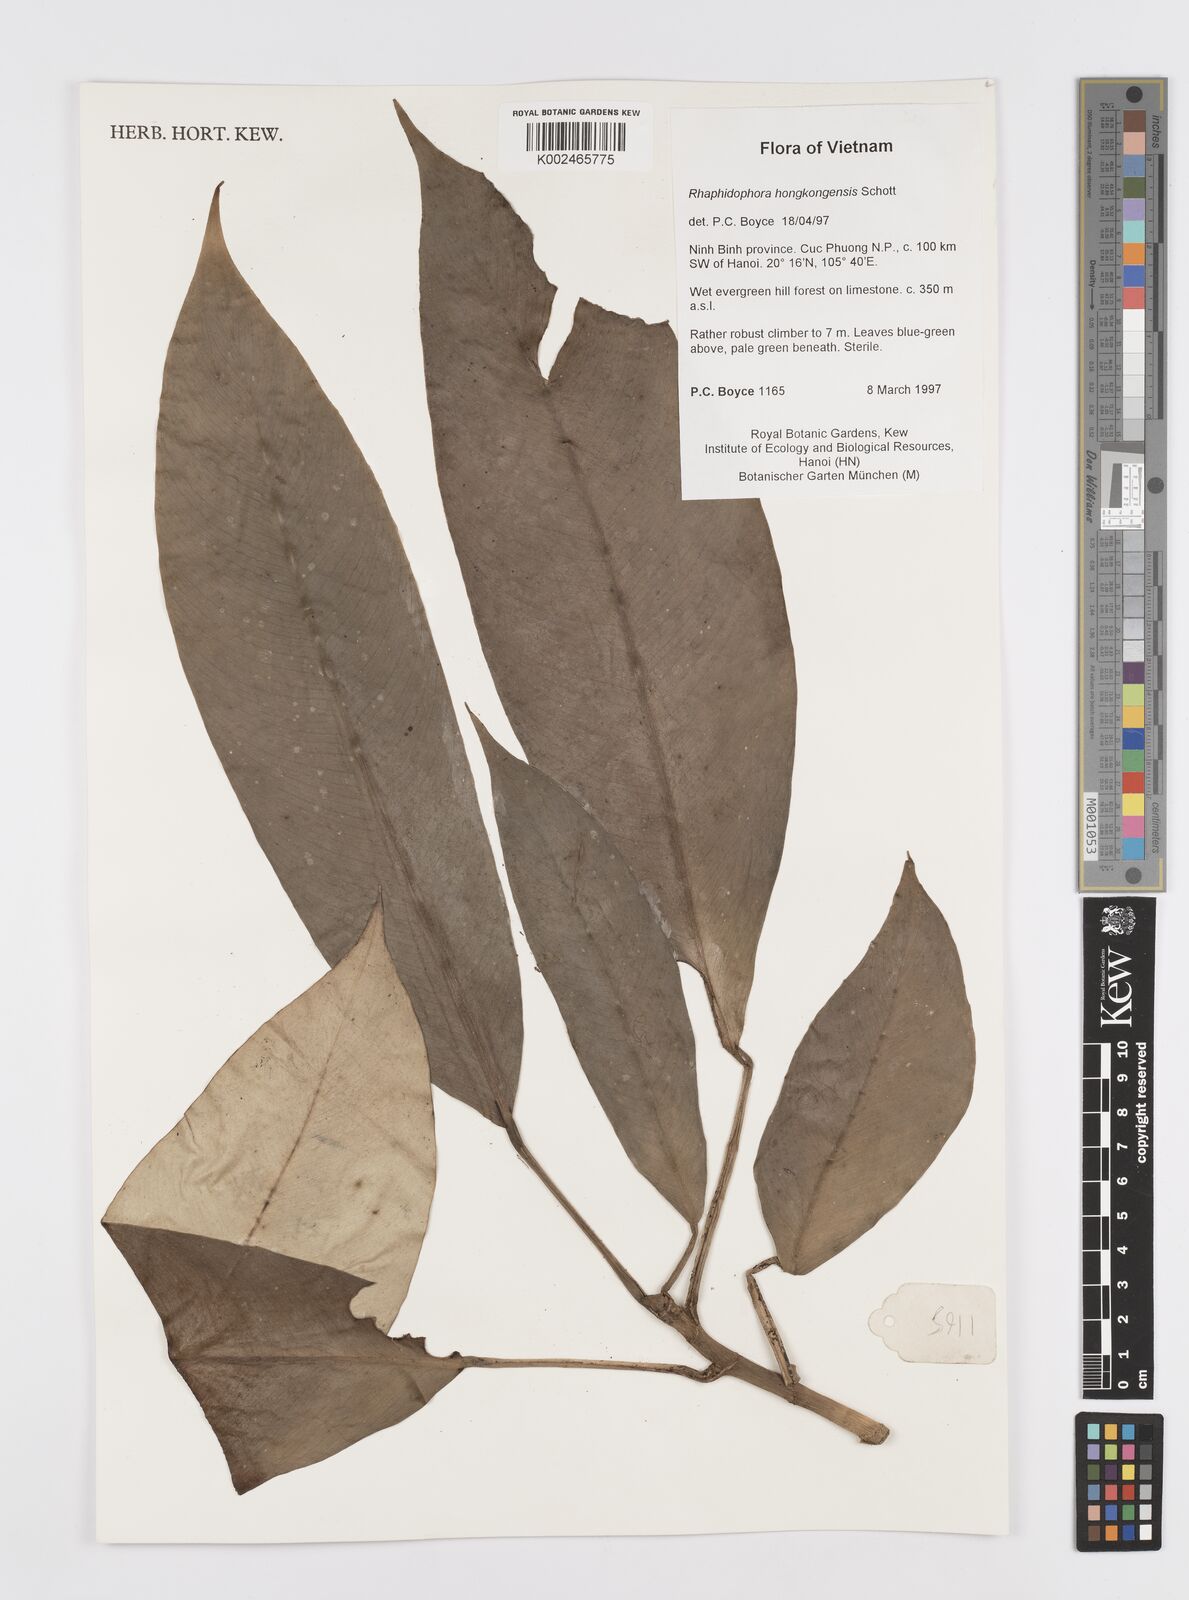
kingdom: Plantae
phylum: Tracheophyta
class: Liliopsida
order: Alismatales
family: Araceae
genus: Rhaphidophora
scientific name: Rhaphidophora
